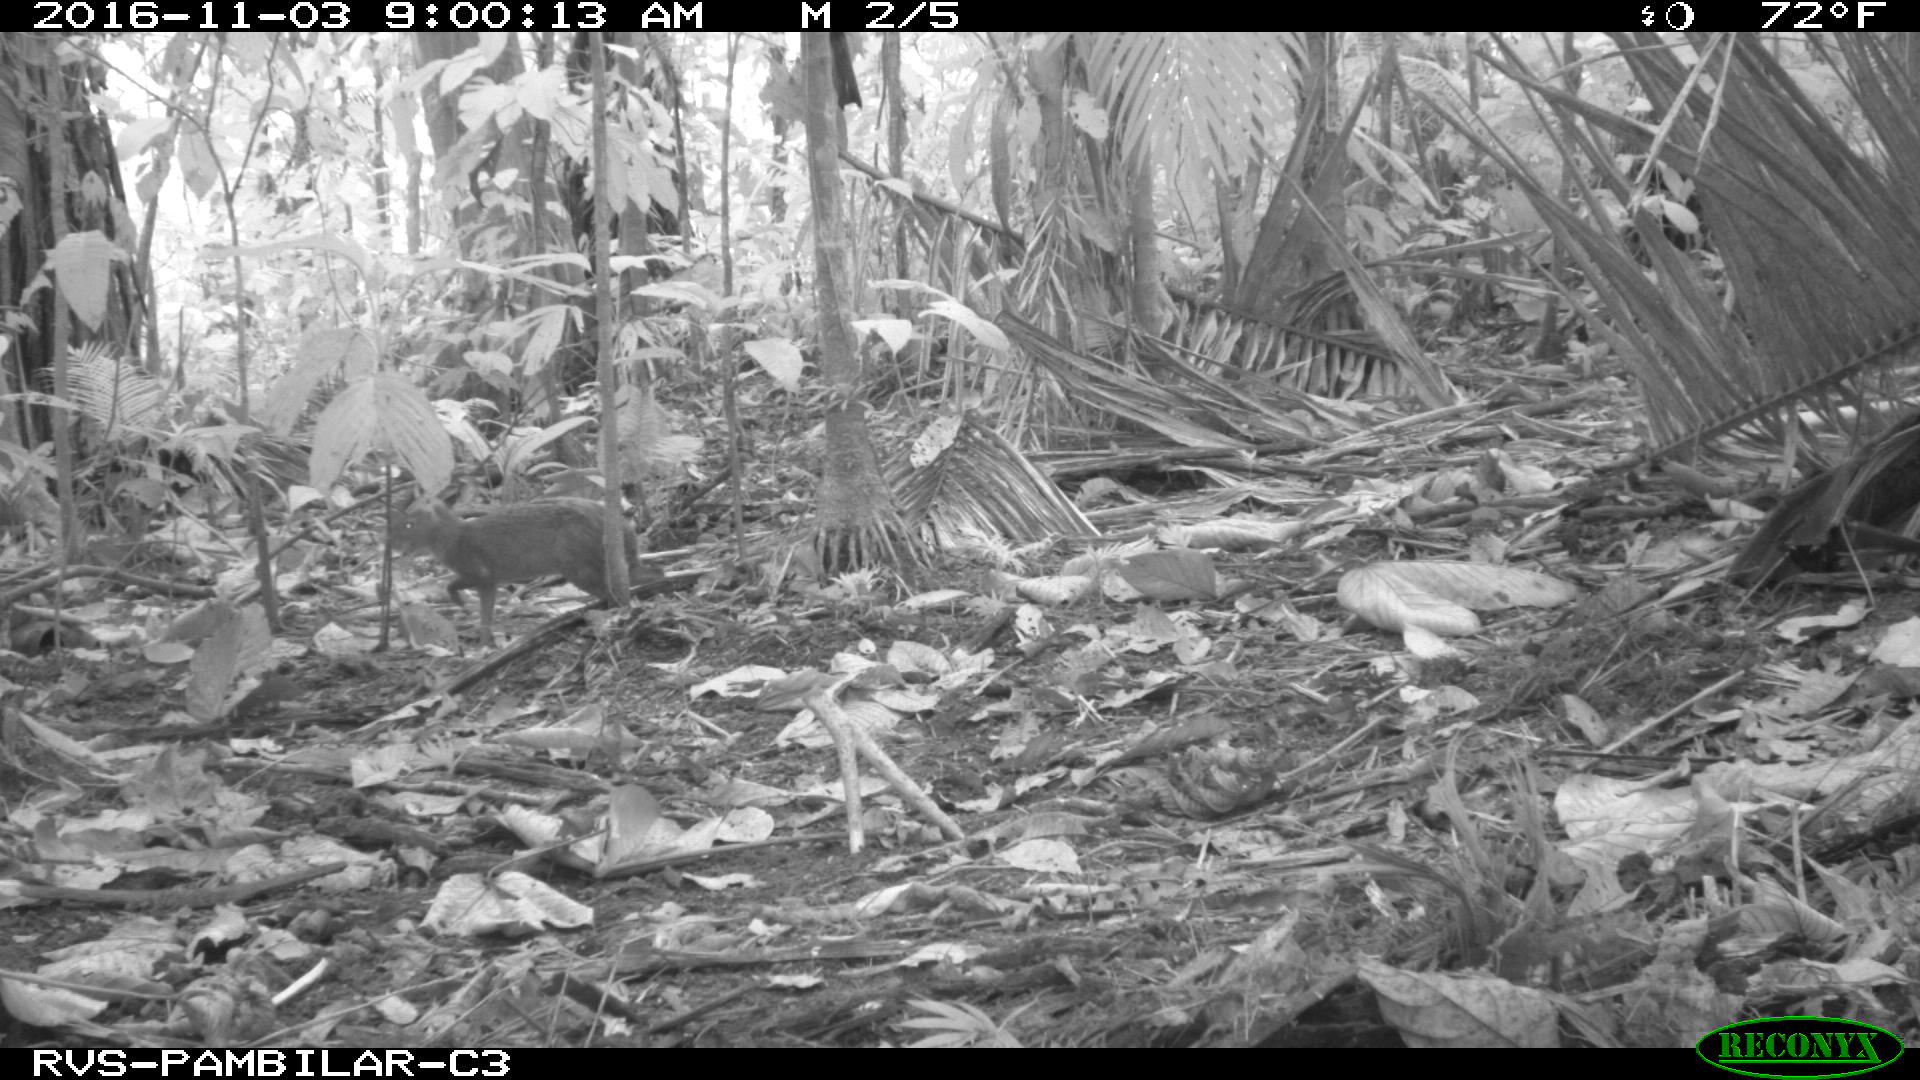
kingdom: Animalia
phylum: Chordata
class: Mammalia
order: Rodentia
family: Dasyproctidae
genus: Dasyprocta
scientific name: Dasyprocta punctata
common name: Central american agouti
